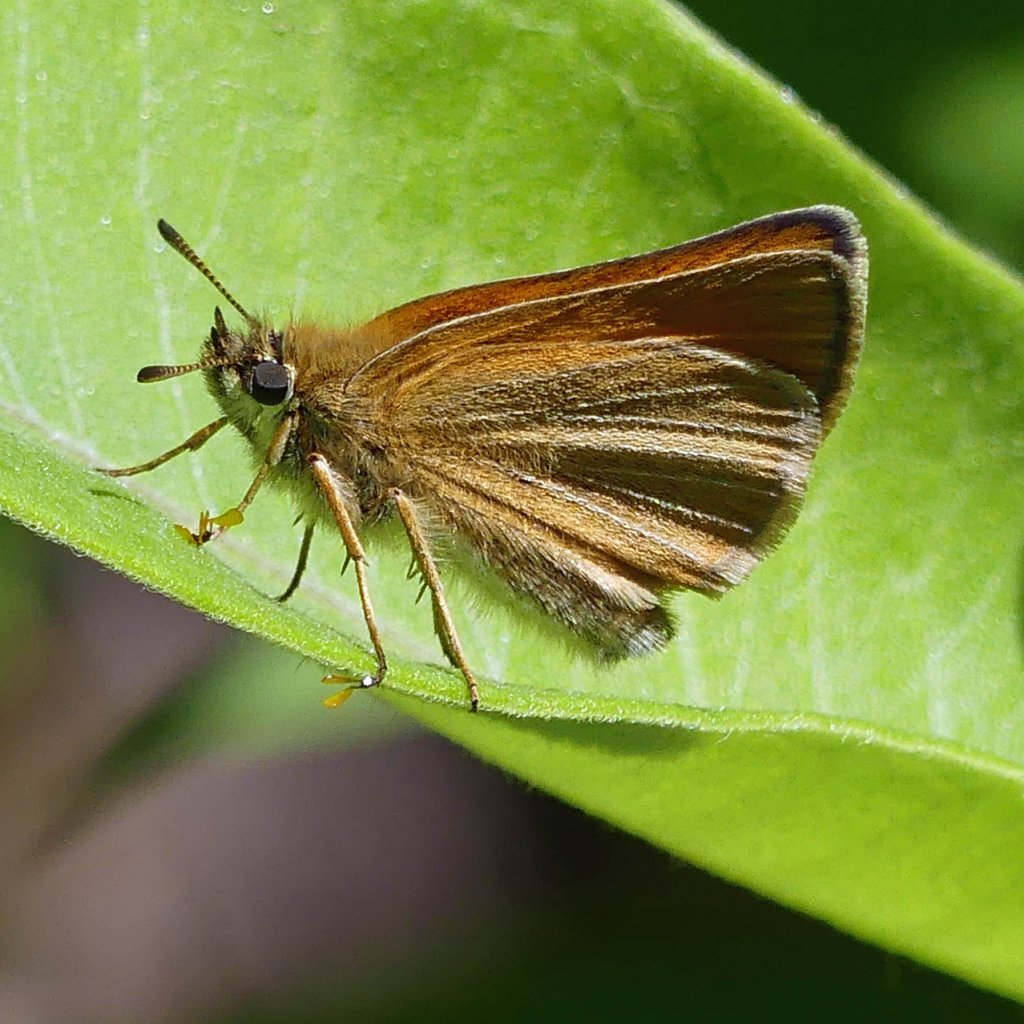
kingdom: Animalia
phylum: Arthropoda
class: Insecta
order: Lepidoptera
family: Hesperiidae
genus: Thymelicus
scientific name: Thymelicus lineola
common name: European Skipper
